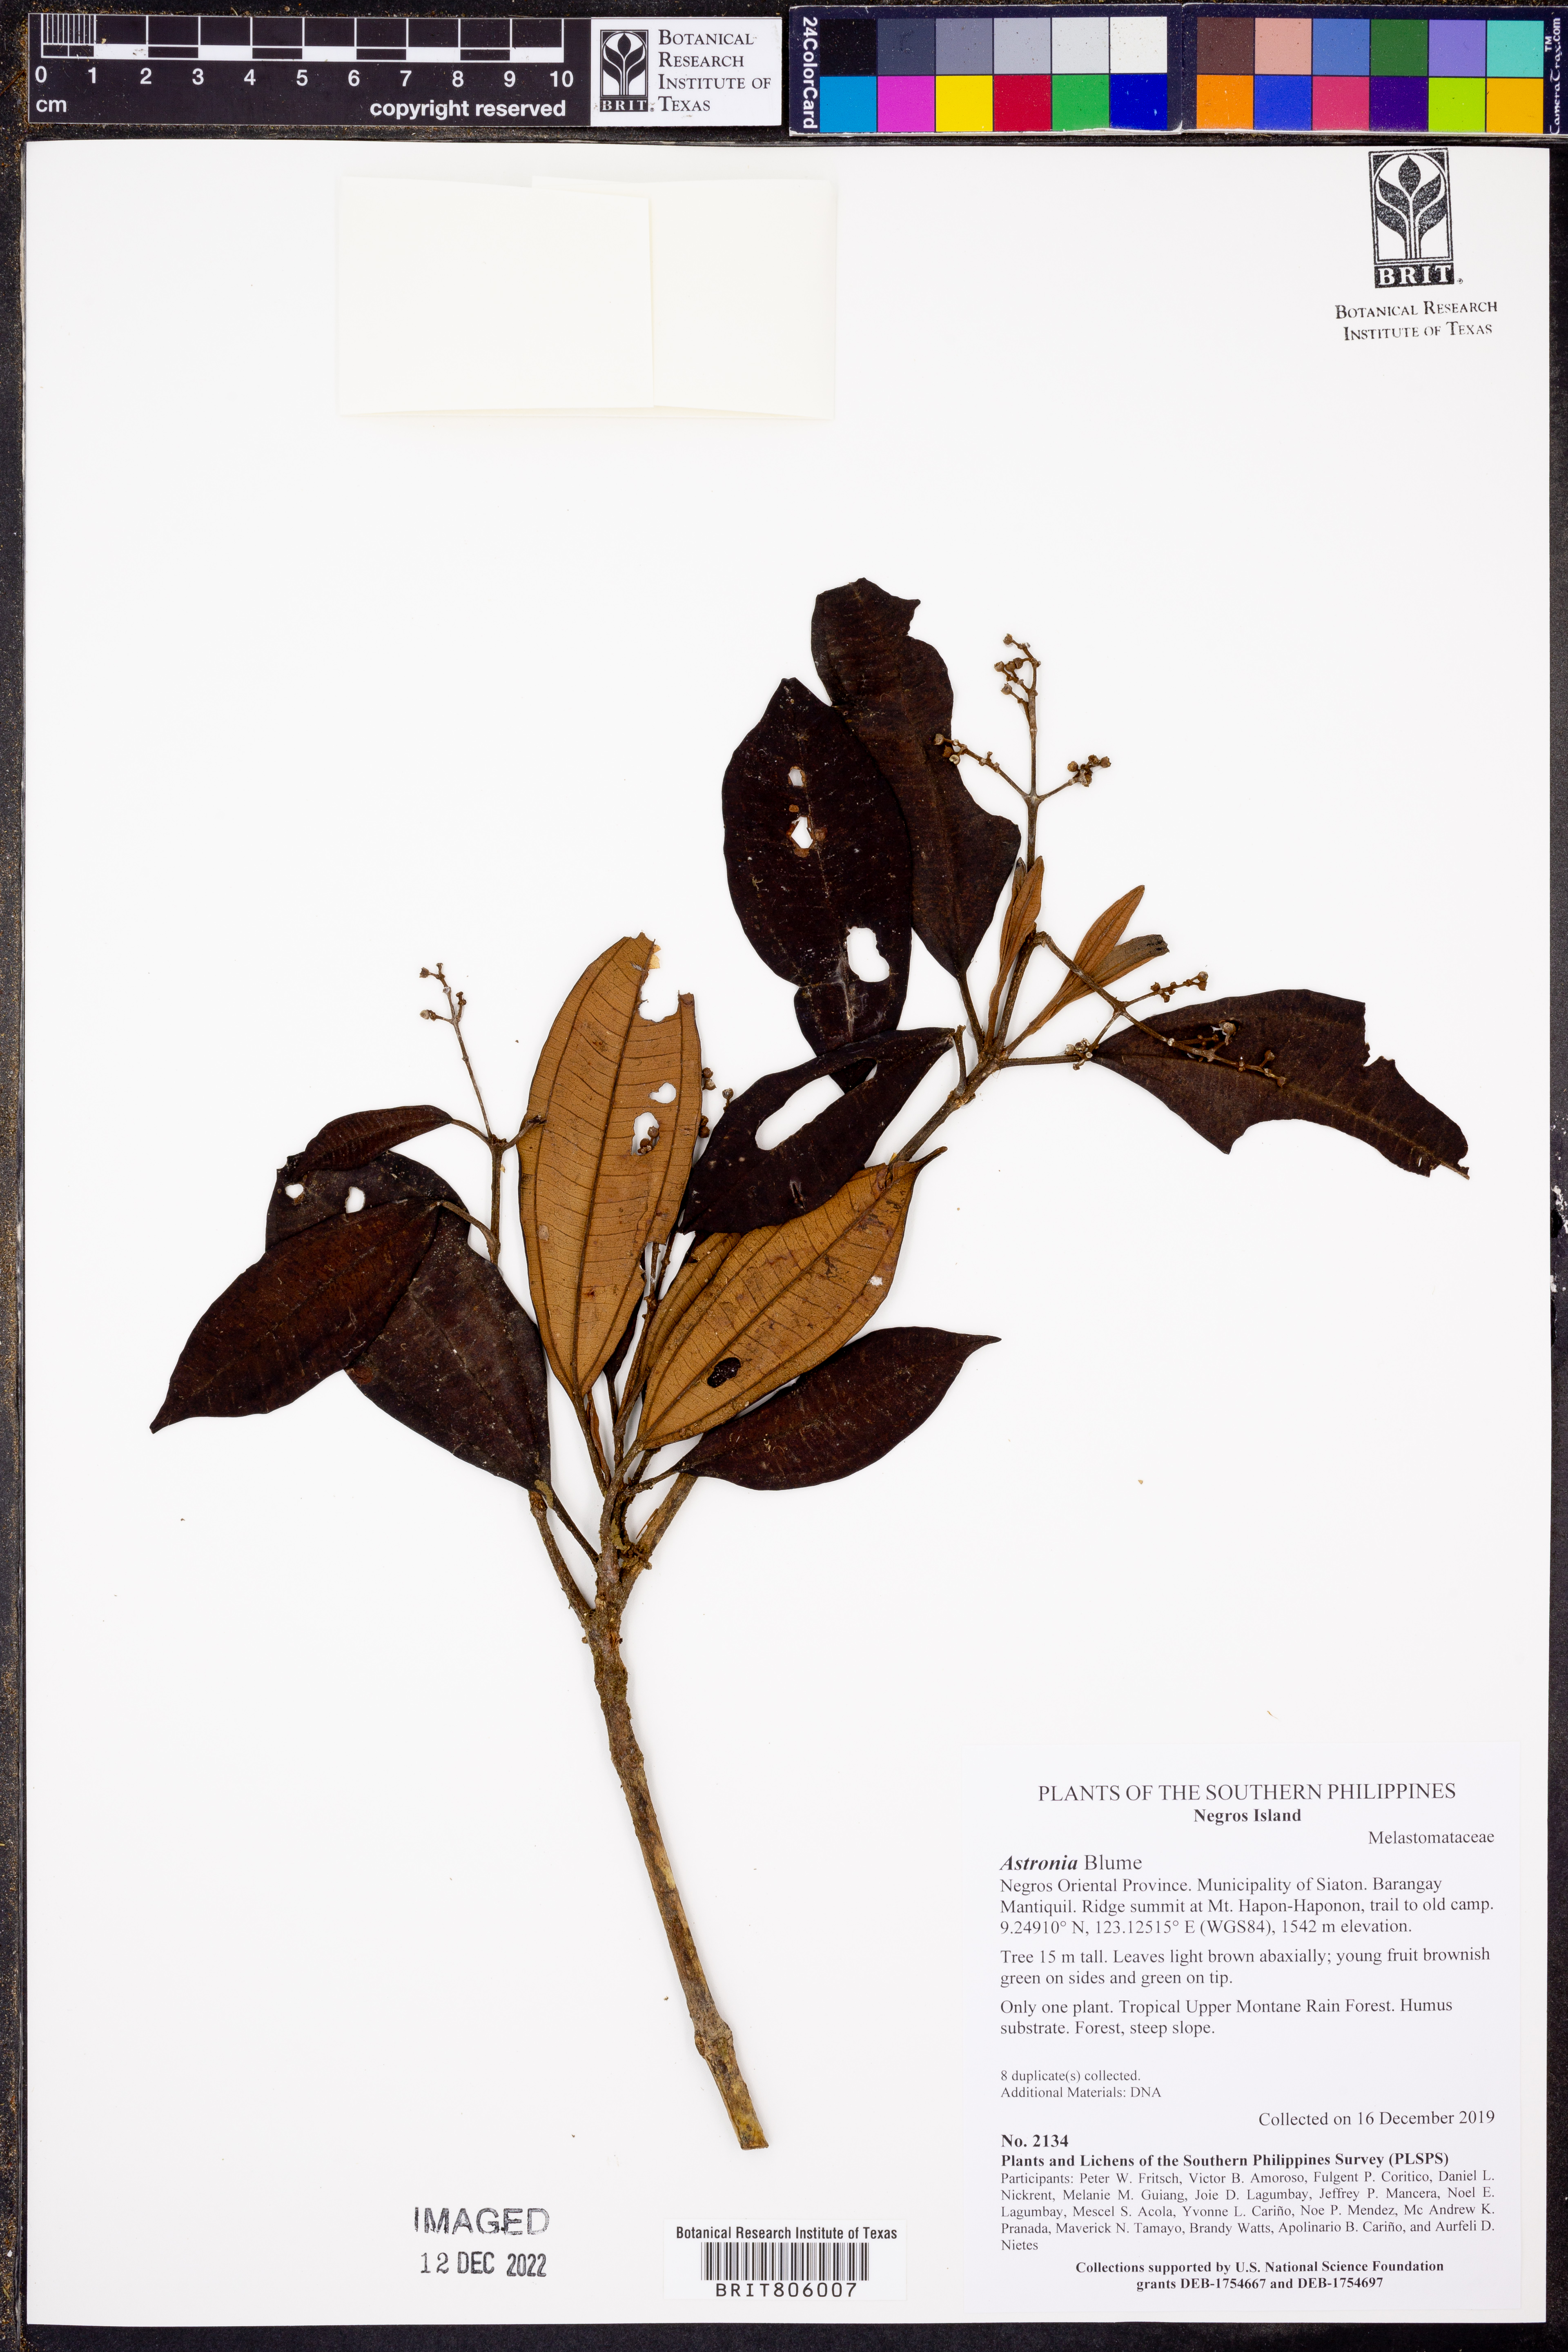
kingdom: Plantae
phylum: Tracheophyta
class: Magnoliopsida
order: Myrtales
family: Melastomataceae
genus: Astronia
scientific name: Astronia
